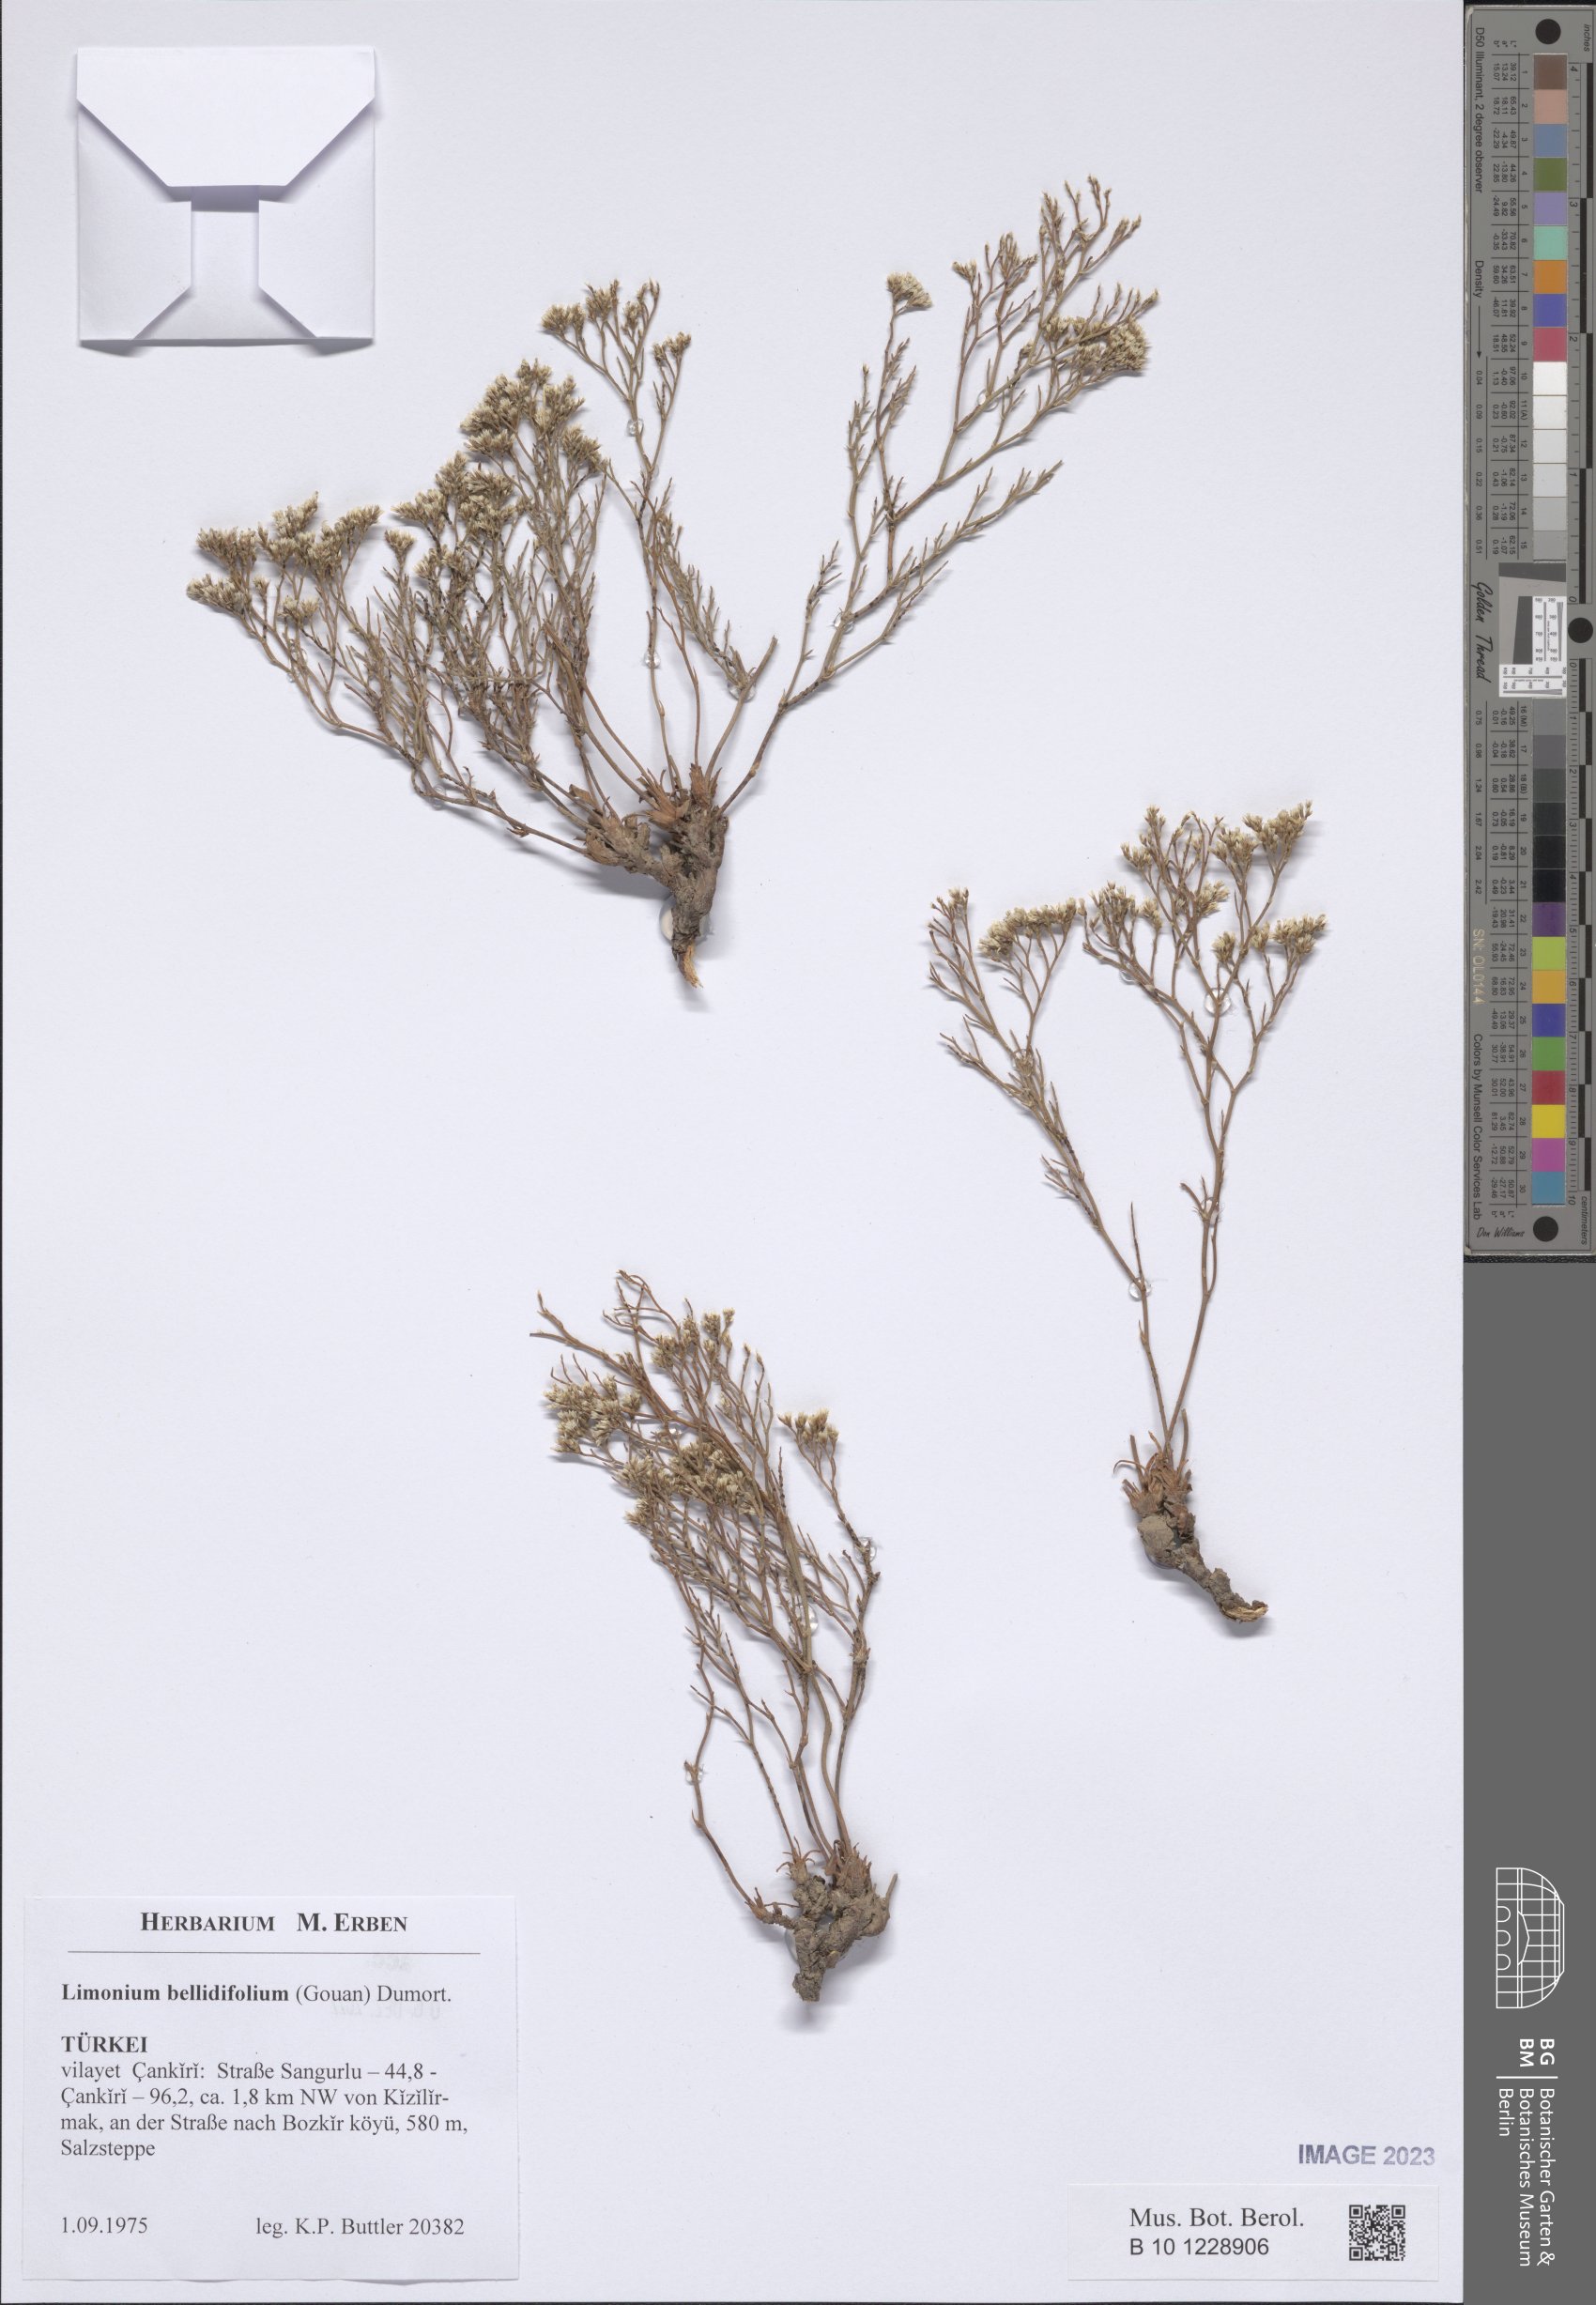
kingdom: Plantae
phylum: Tracheophyta
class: Magnoliopsida
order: Caryophyllales
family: Plumbaginaceae
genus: Limonium
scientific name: Limonium bellidifolium
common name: Matted sea-lavender
